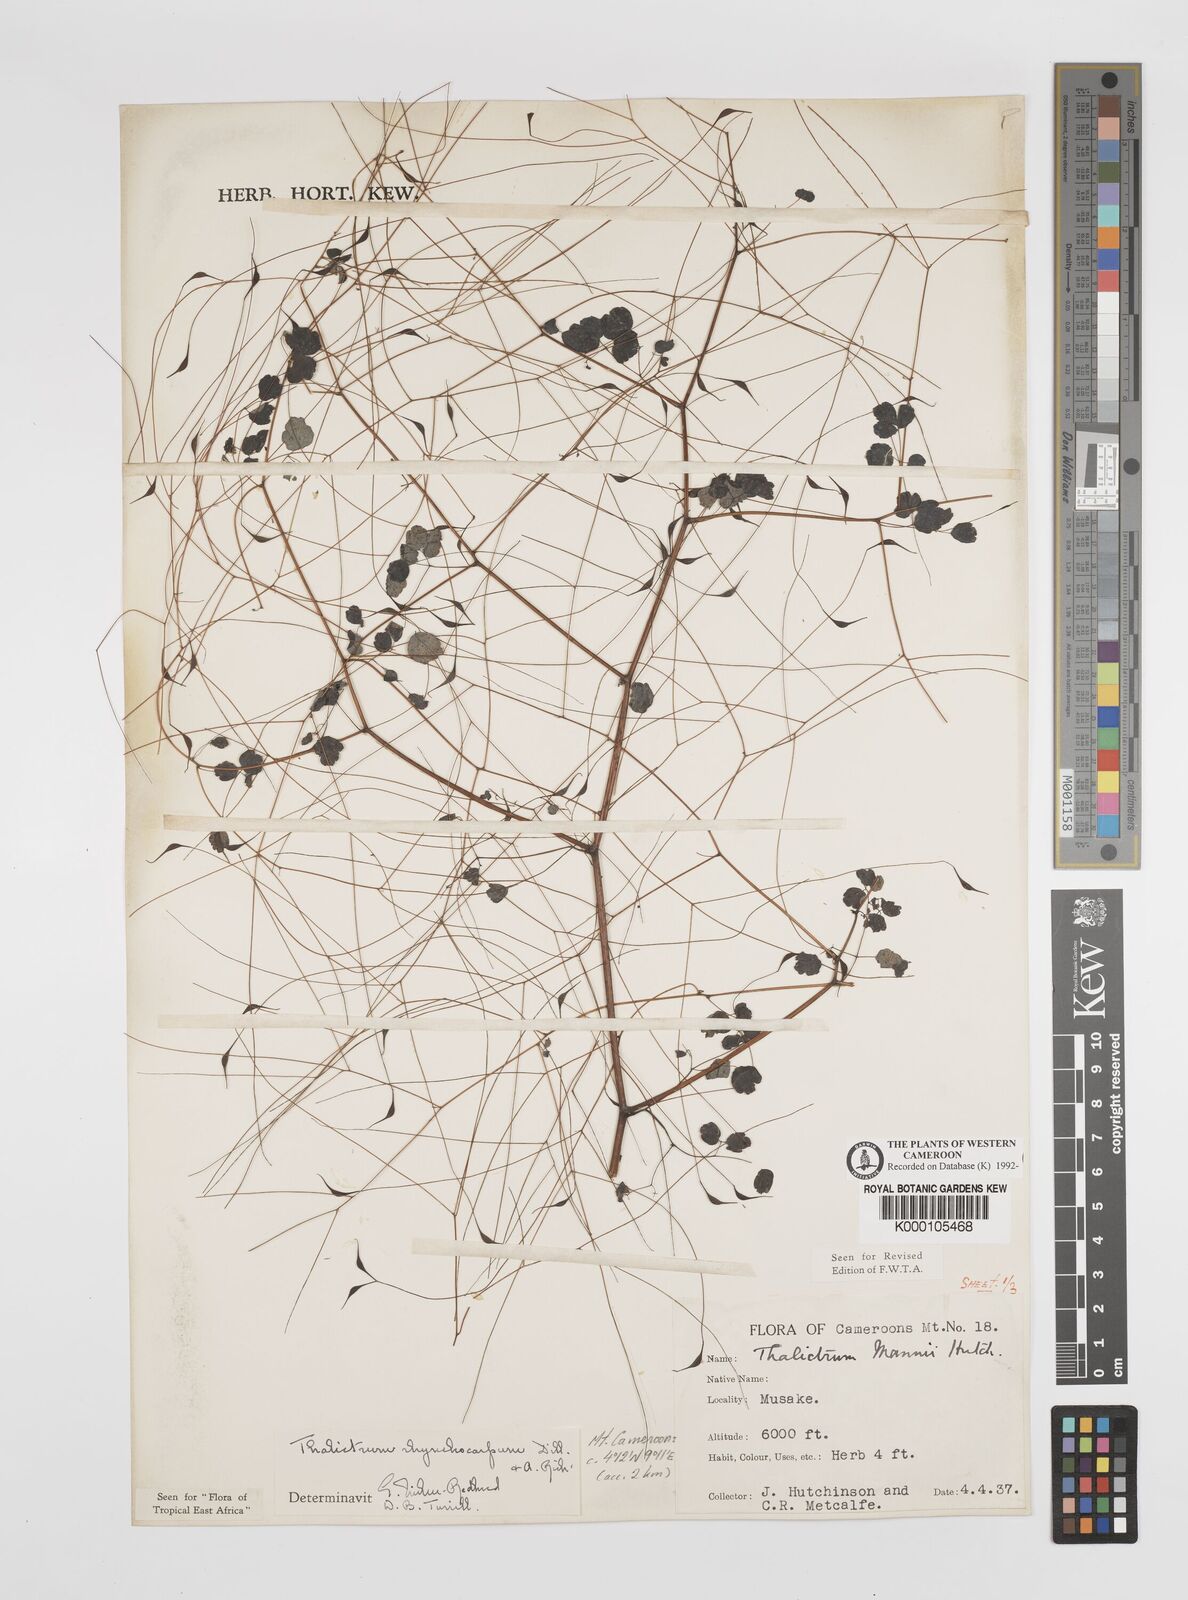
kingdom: Plantae
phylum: Tracheophyta
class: Magnoliopsida
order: Ranunculales
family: Ranunculaceae
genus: Thalictrum
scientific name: Thalictrum
